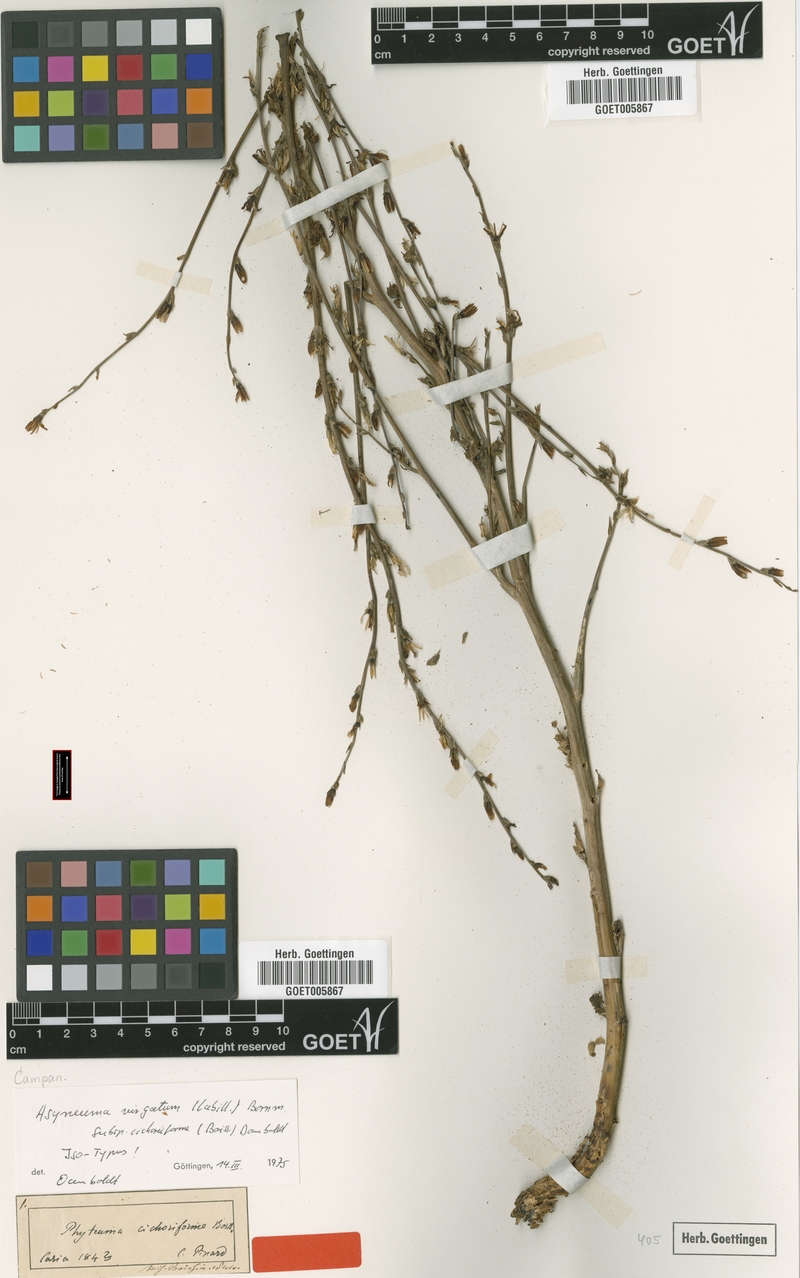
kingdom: Plantae
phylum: Tracheophyta
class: Magnoliopsida
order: Asterales
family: Campanulaceae
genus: Asyneuma
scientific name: Asyneuma virgatum
